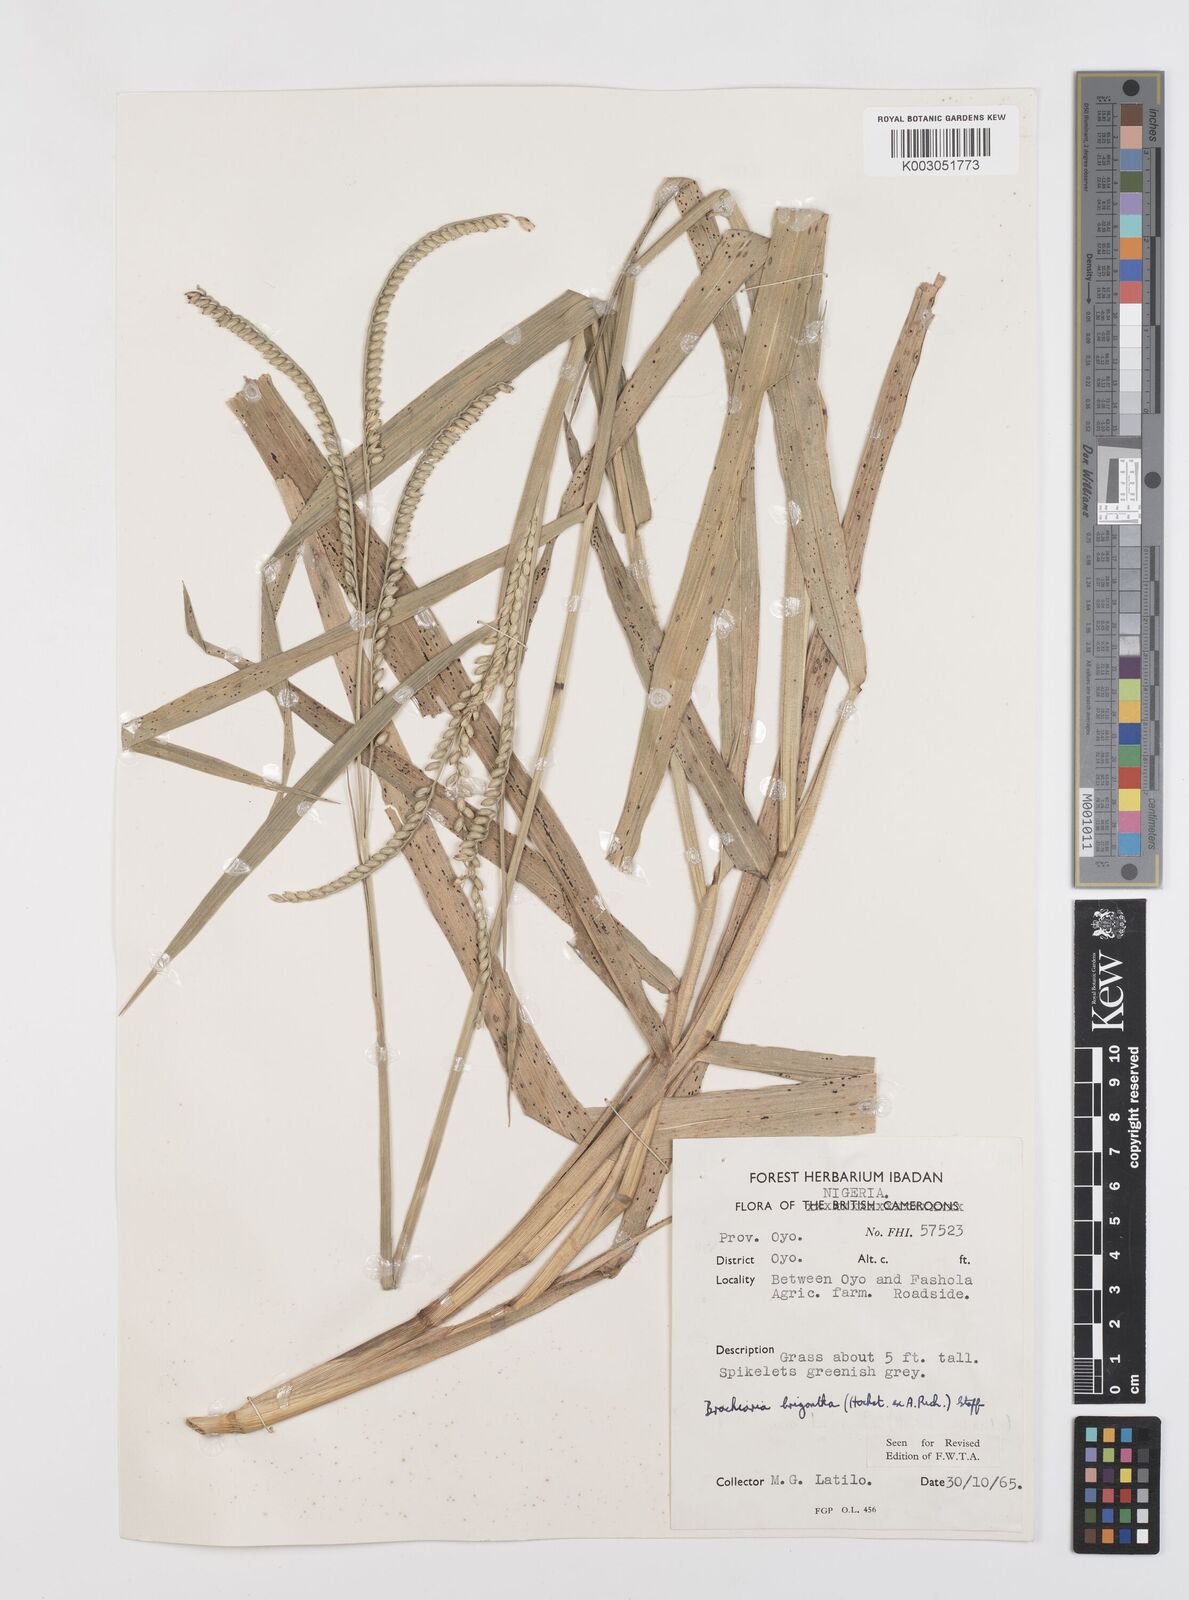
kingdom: Plantae
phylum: Tracheophyta
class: Liliopsida
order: Poales
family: Poaceae
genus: Urochloa
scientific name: Urochloa brizantha
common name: Palisade signalgrass
